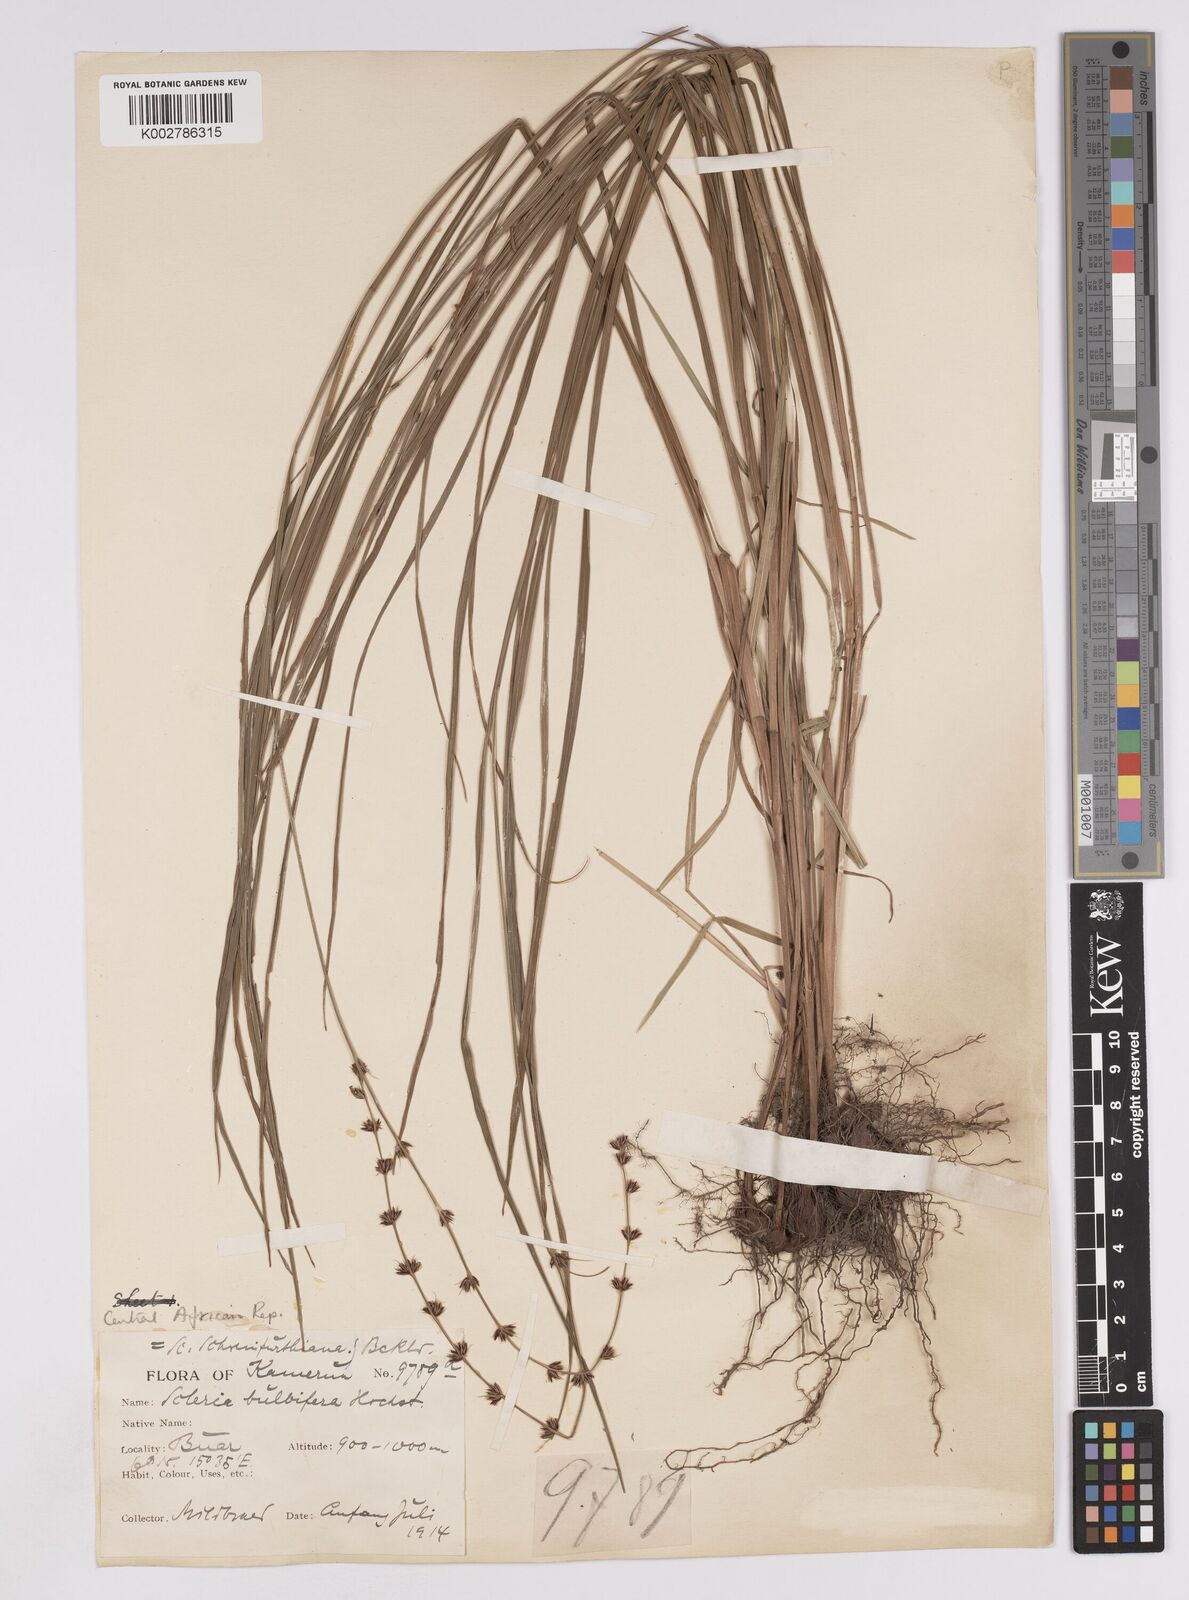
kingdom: Plantae
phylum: Tracheophyta
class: Liliopsida
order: Poales
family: Cyperaceae
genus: Scleria
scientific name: Scleria bulbifera
